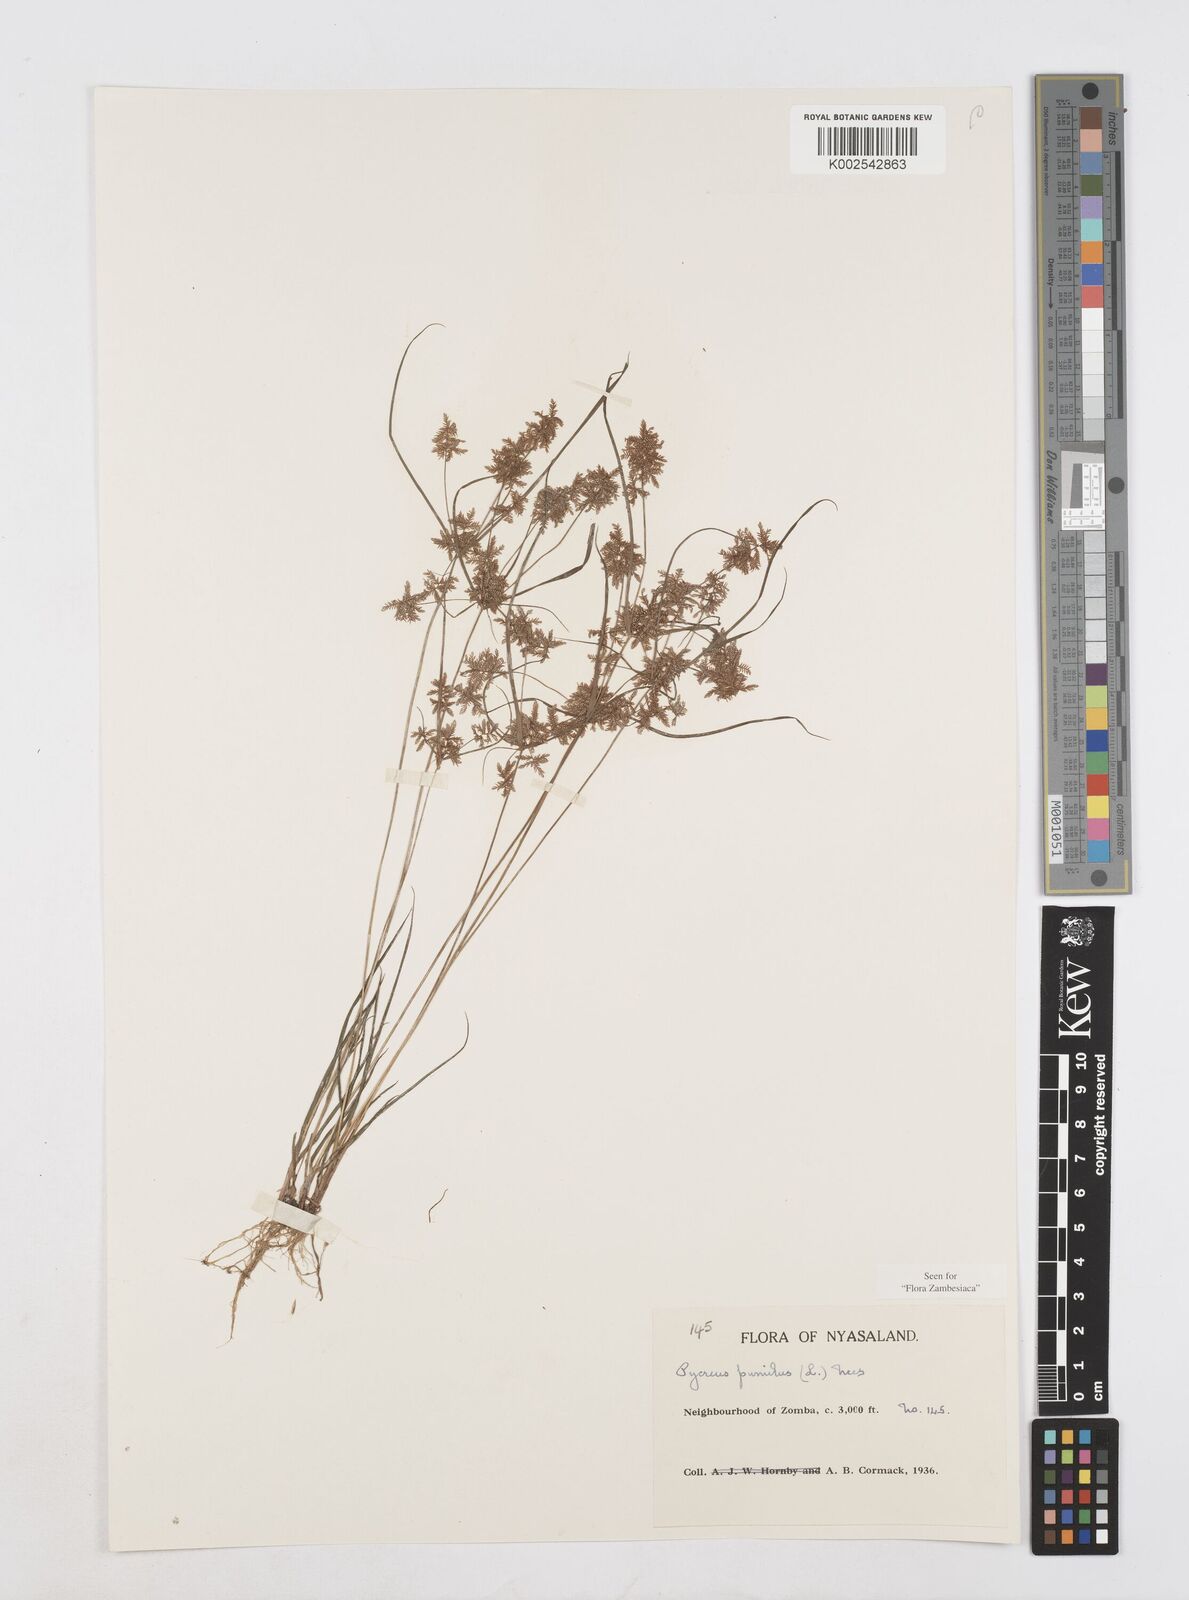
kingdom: Plantae
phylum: Tracheophyta
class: Liliopsida
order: Poales
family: Cyperaceae
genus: Cyperus
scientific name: Cyperus pumilus
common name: Low flatsedge
